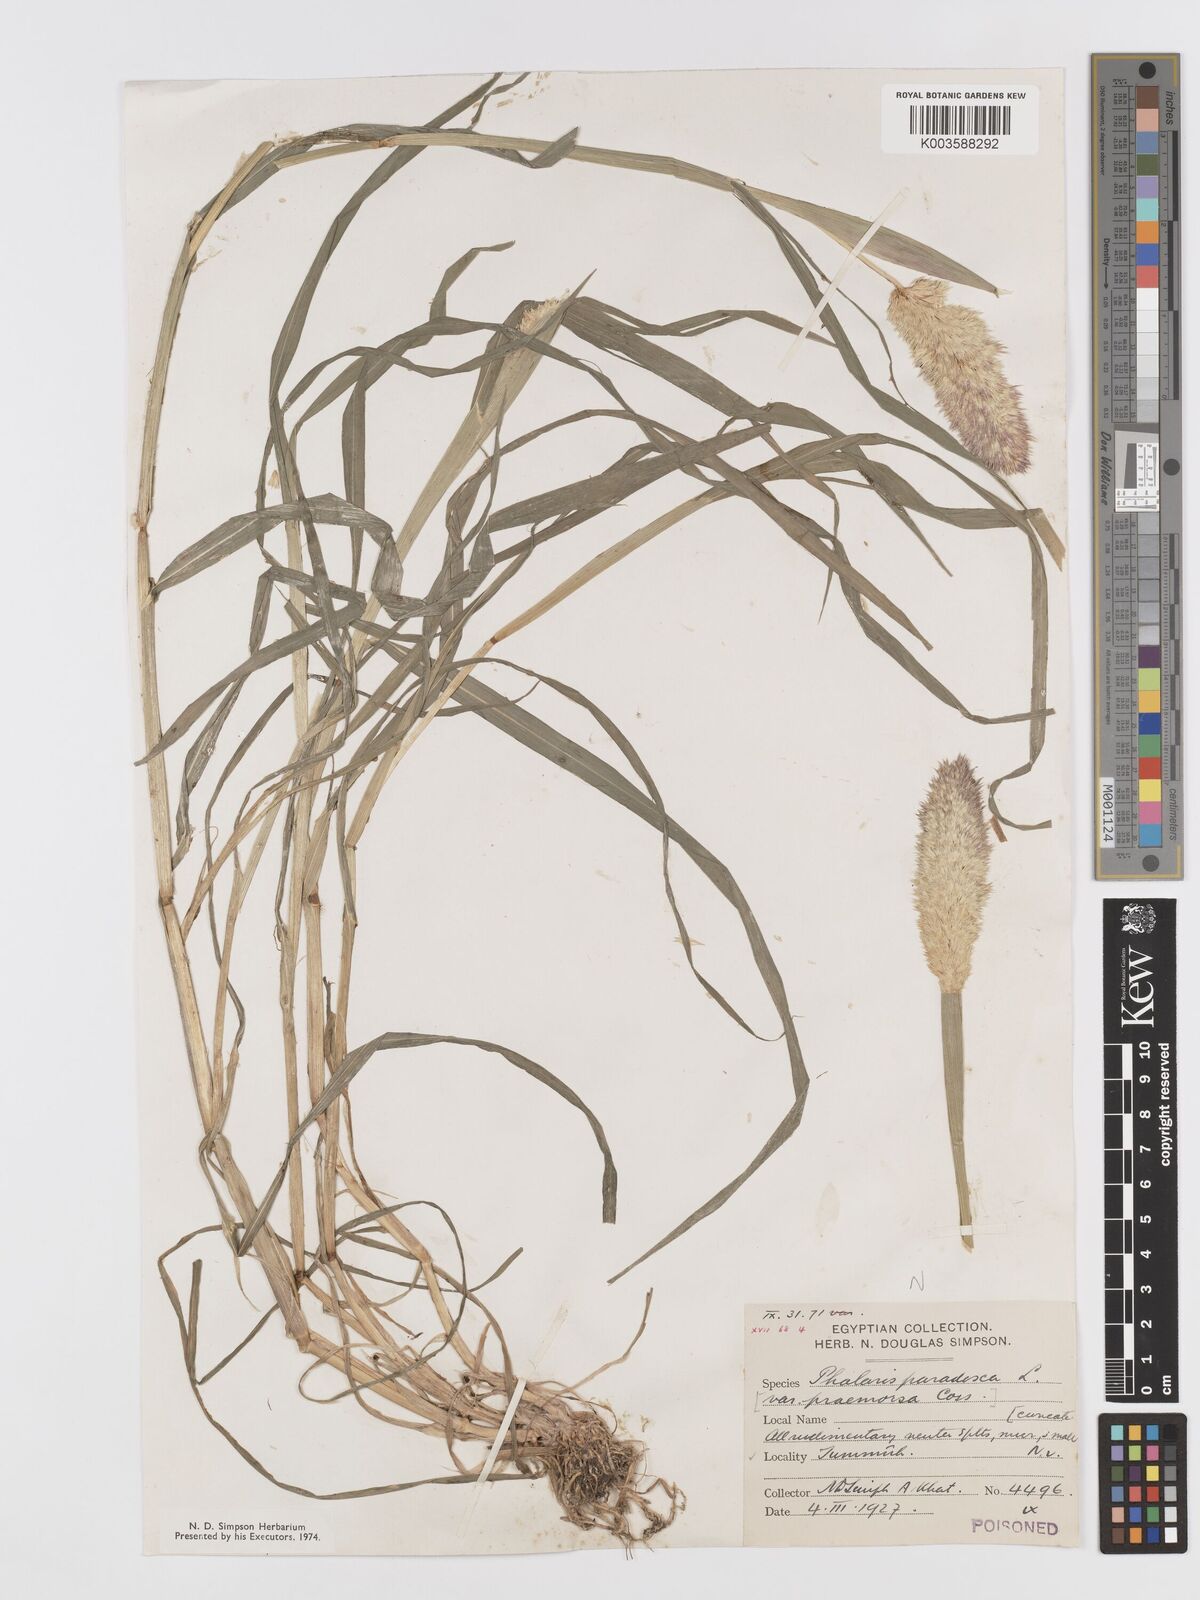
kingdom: Plantae
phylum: Tracheophyta
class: Liliopsida
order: Poales
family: Poaceae
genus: Phalaris
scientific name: Phalaris paradoxa
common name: Awned canary-grass
